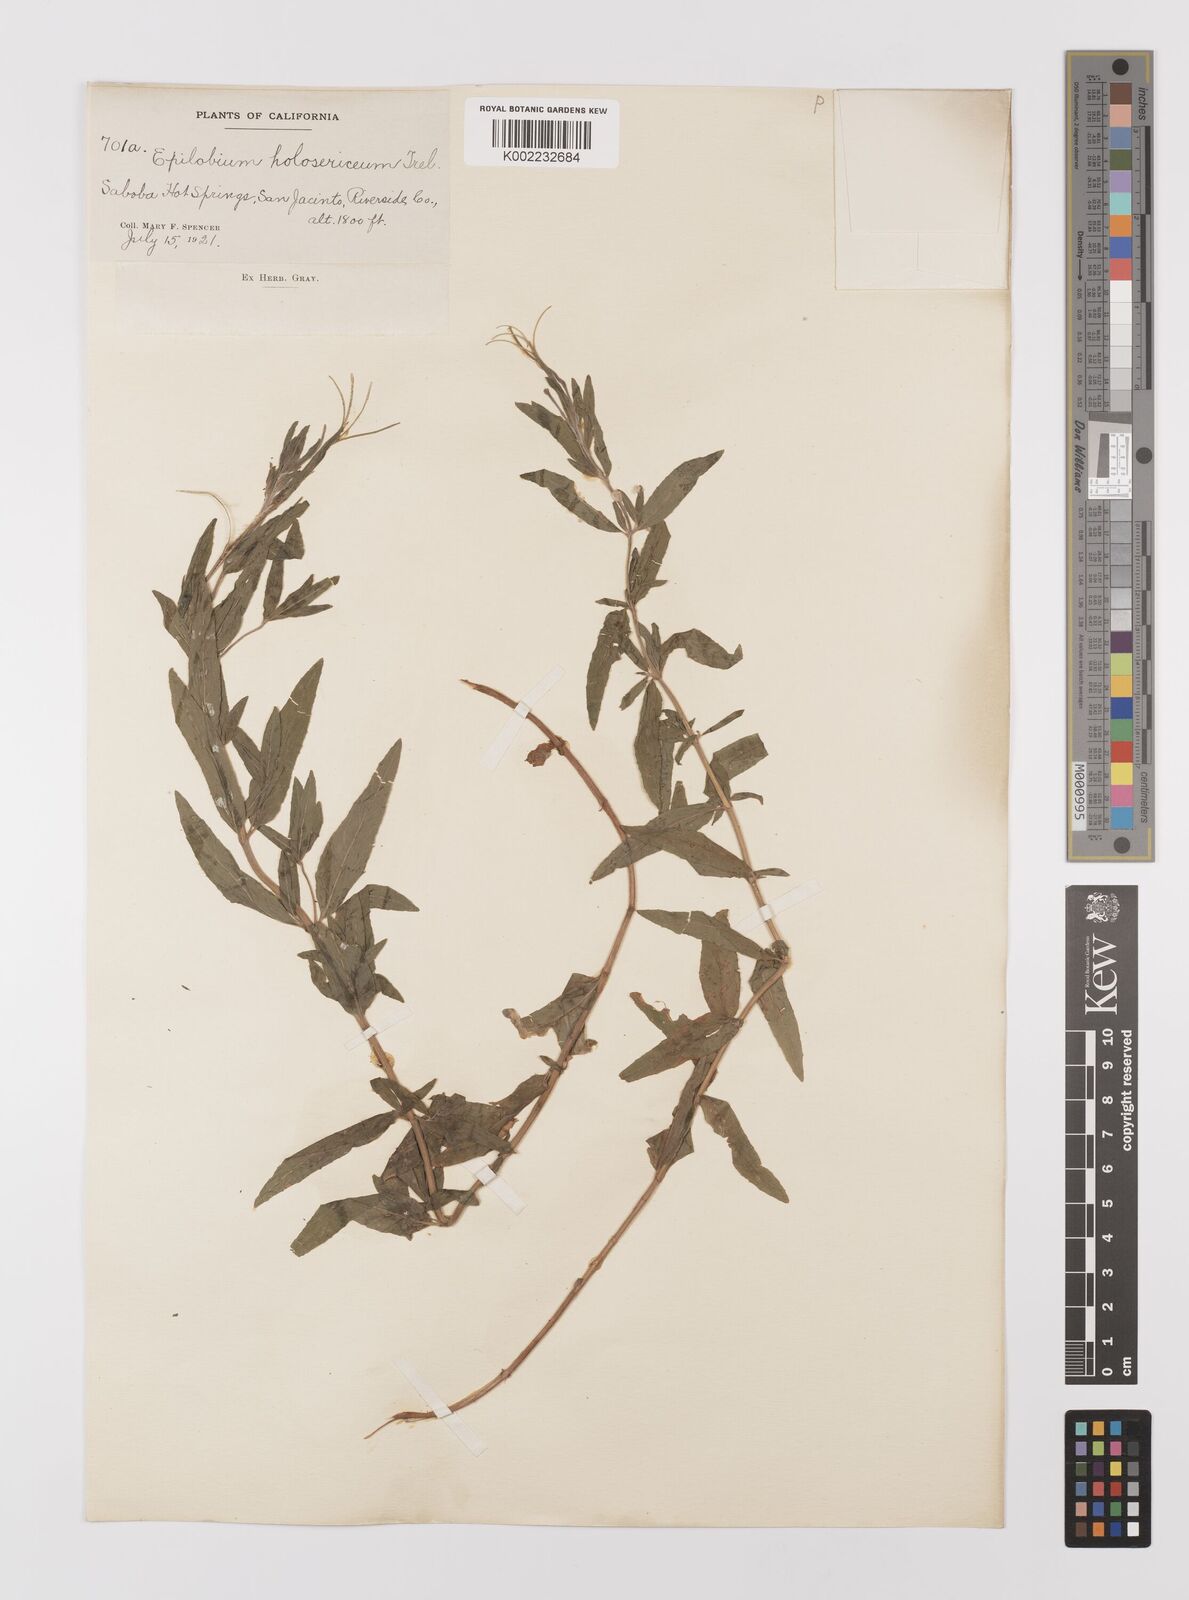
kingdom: Plantae
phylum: Tracheophyta
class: Magnoliopsida
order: Myrtales
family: Onagraceae
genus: Epilobium
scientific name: Epilobium ciliatum
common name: American willowherb
